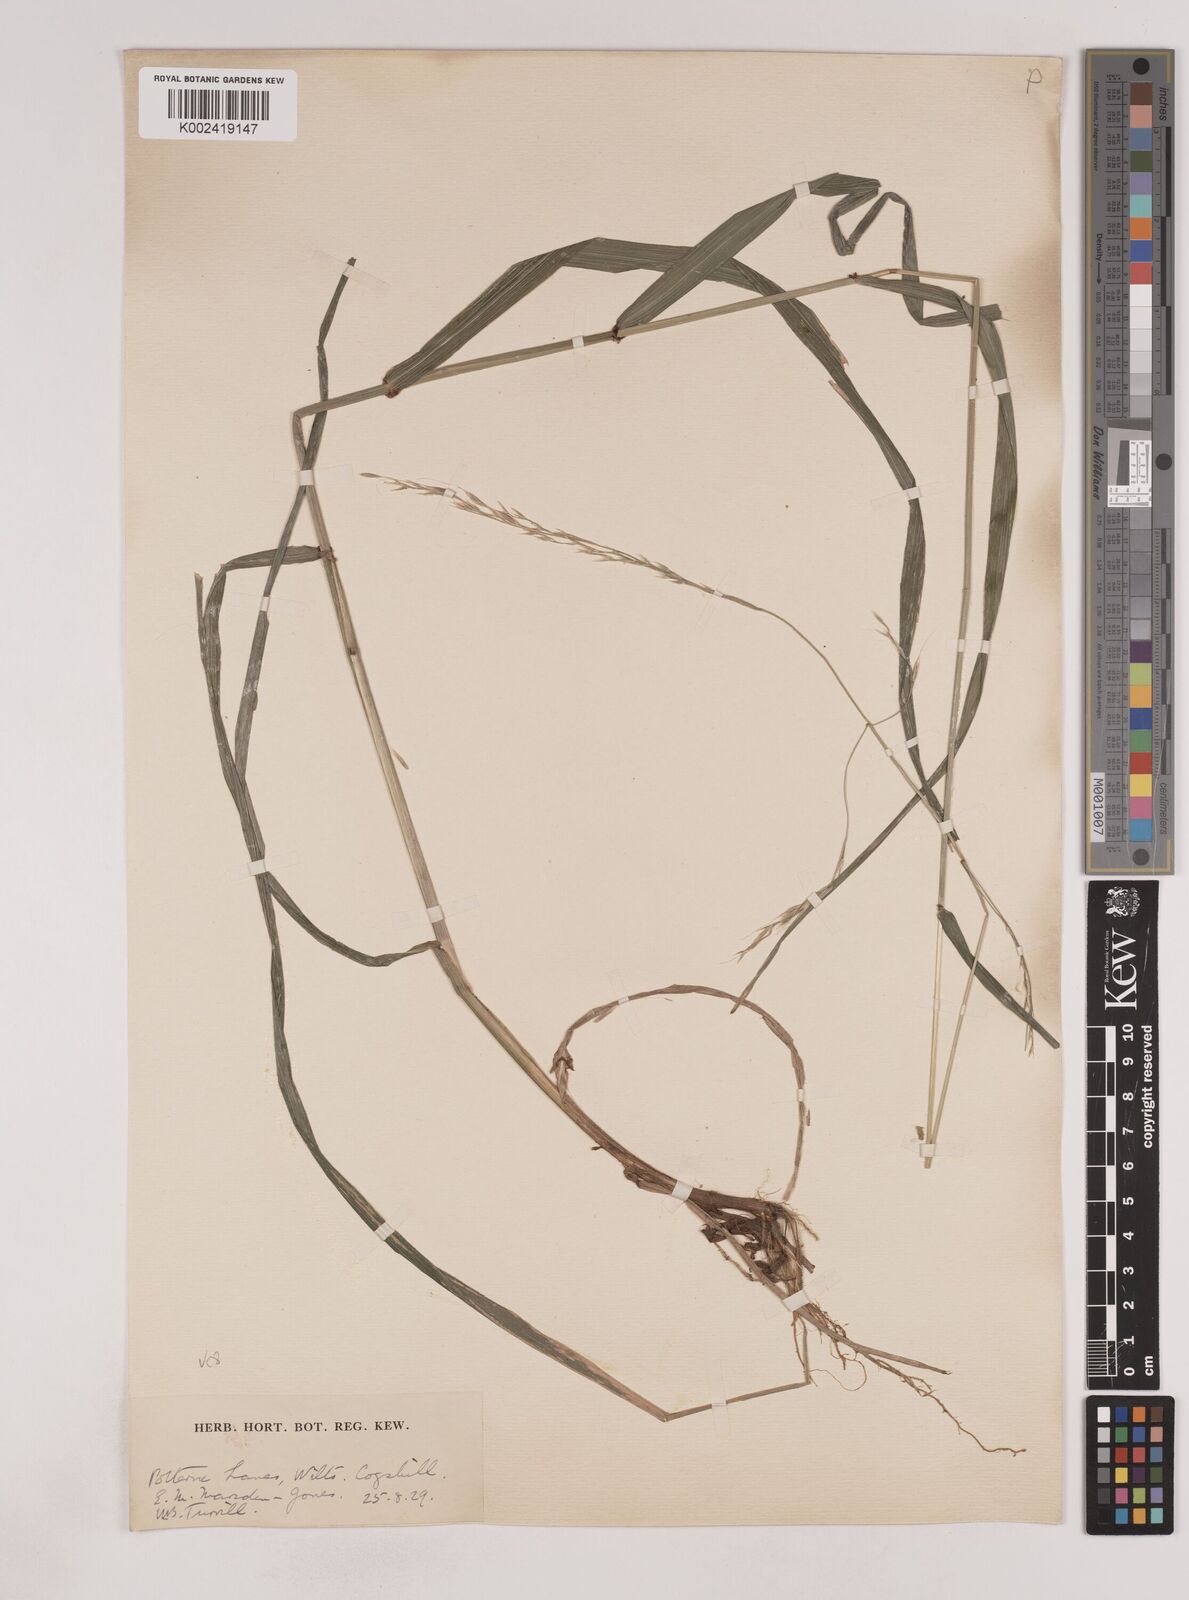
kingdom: Plantae
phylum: Tracheophyta
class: Liliopsida
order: Poales
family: Poaceae
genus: Lolium
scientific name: Lolium giganteum
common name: Giant fescue
